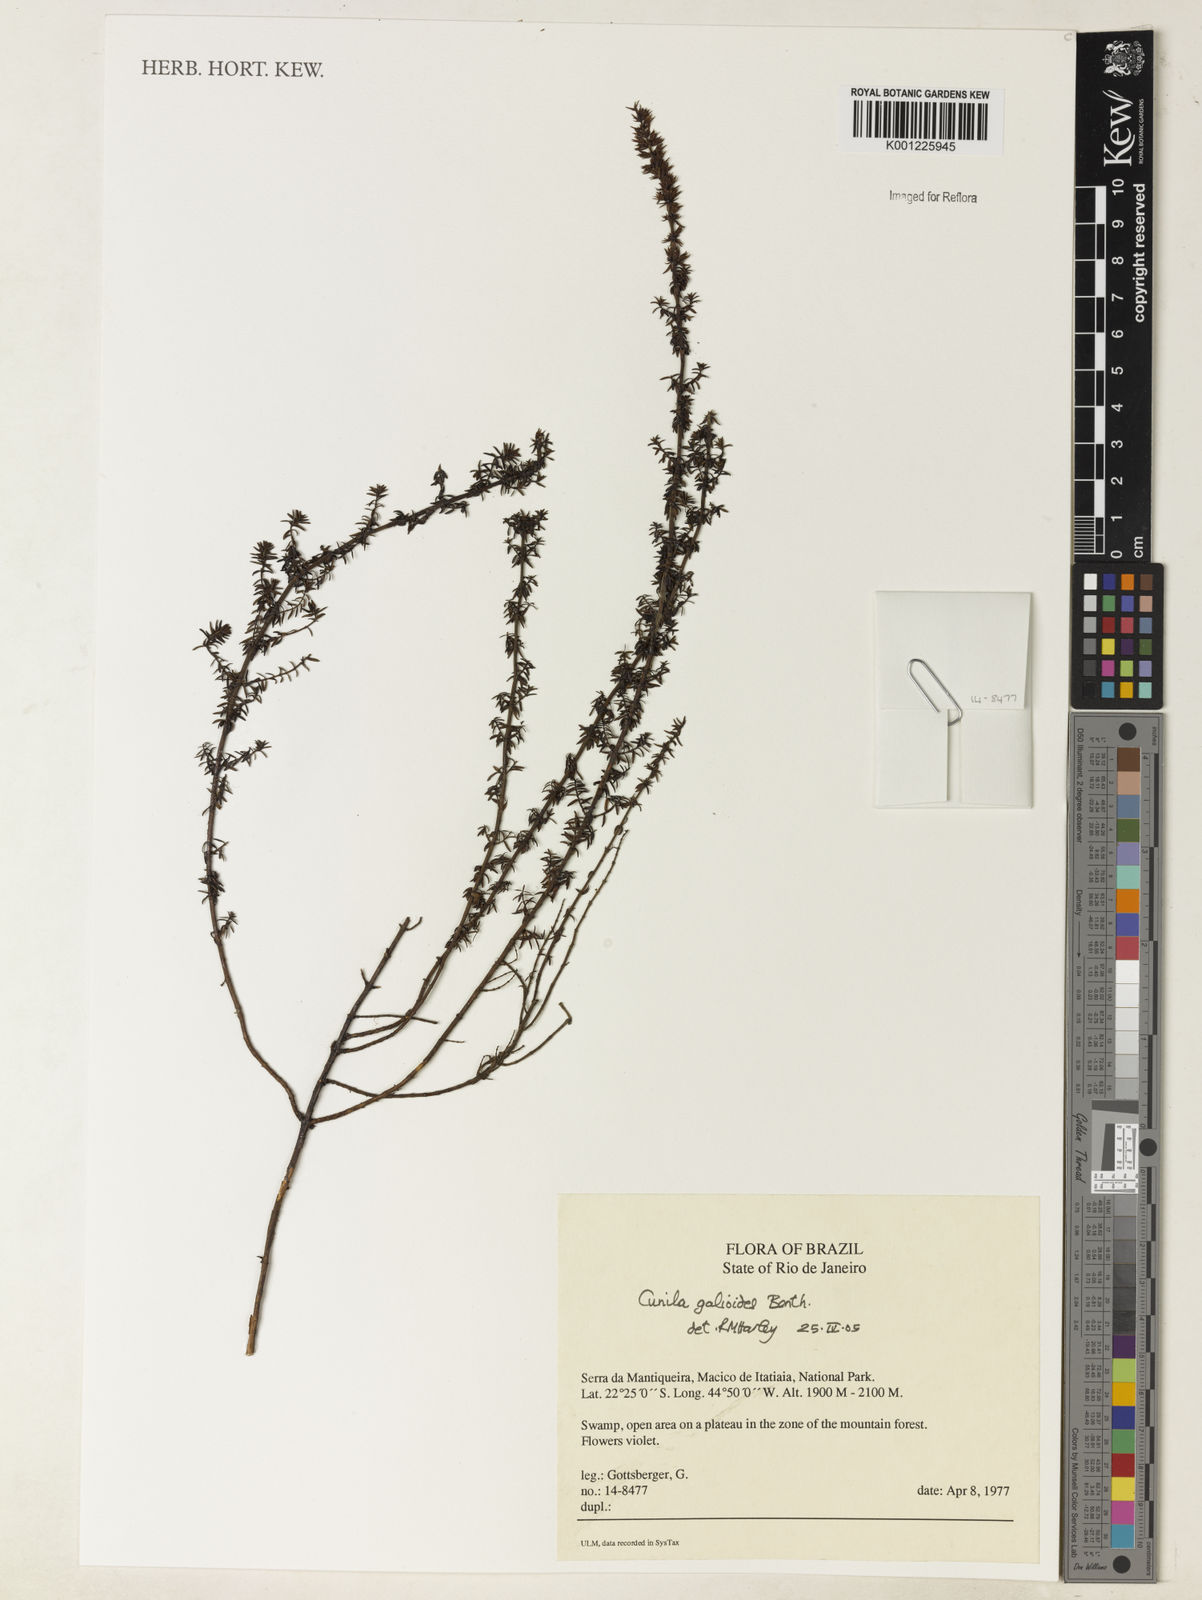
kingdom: Plantae
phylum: Tracheophyta
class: Magnoliopsida
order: Lamiales
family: Lamiaceae
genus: Cunila
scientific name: Cunila galioides
